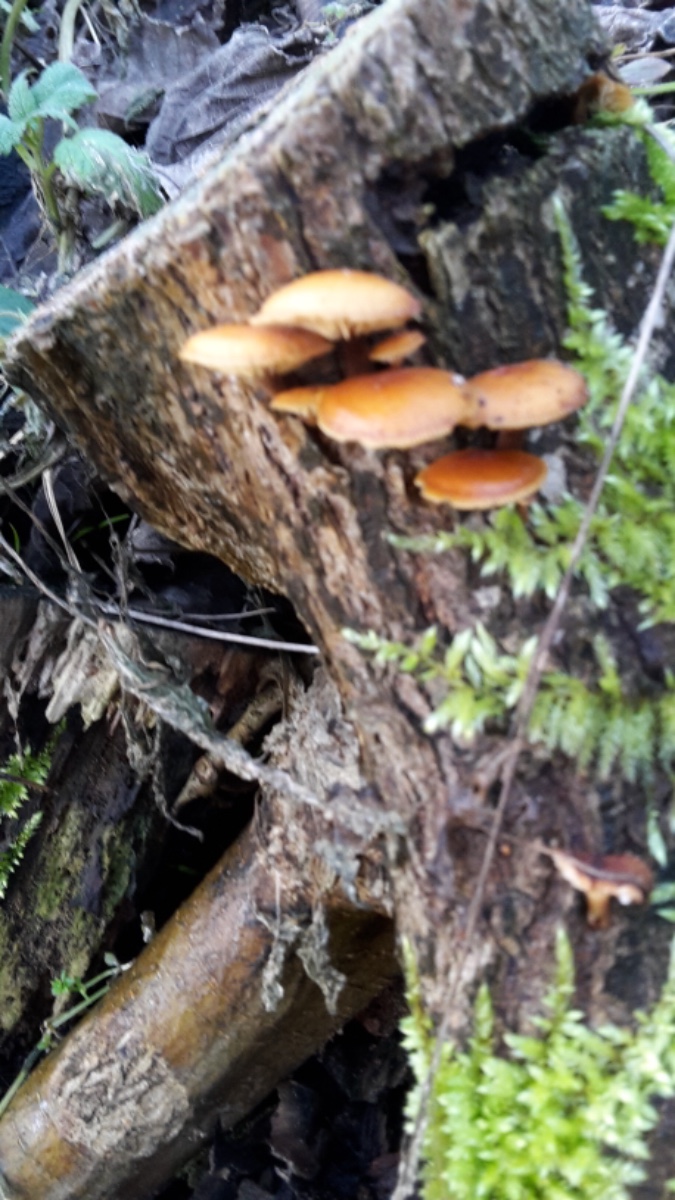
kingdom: Fungi
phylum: Basidiomycota
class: Agaricomycetes
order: Agaricales
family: Physalacriaceae
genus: Flammulina
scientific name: Flammulina velutipes
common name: gul fløjlsfod
